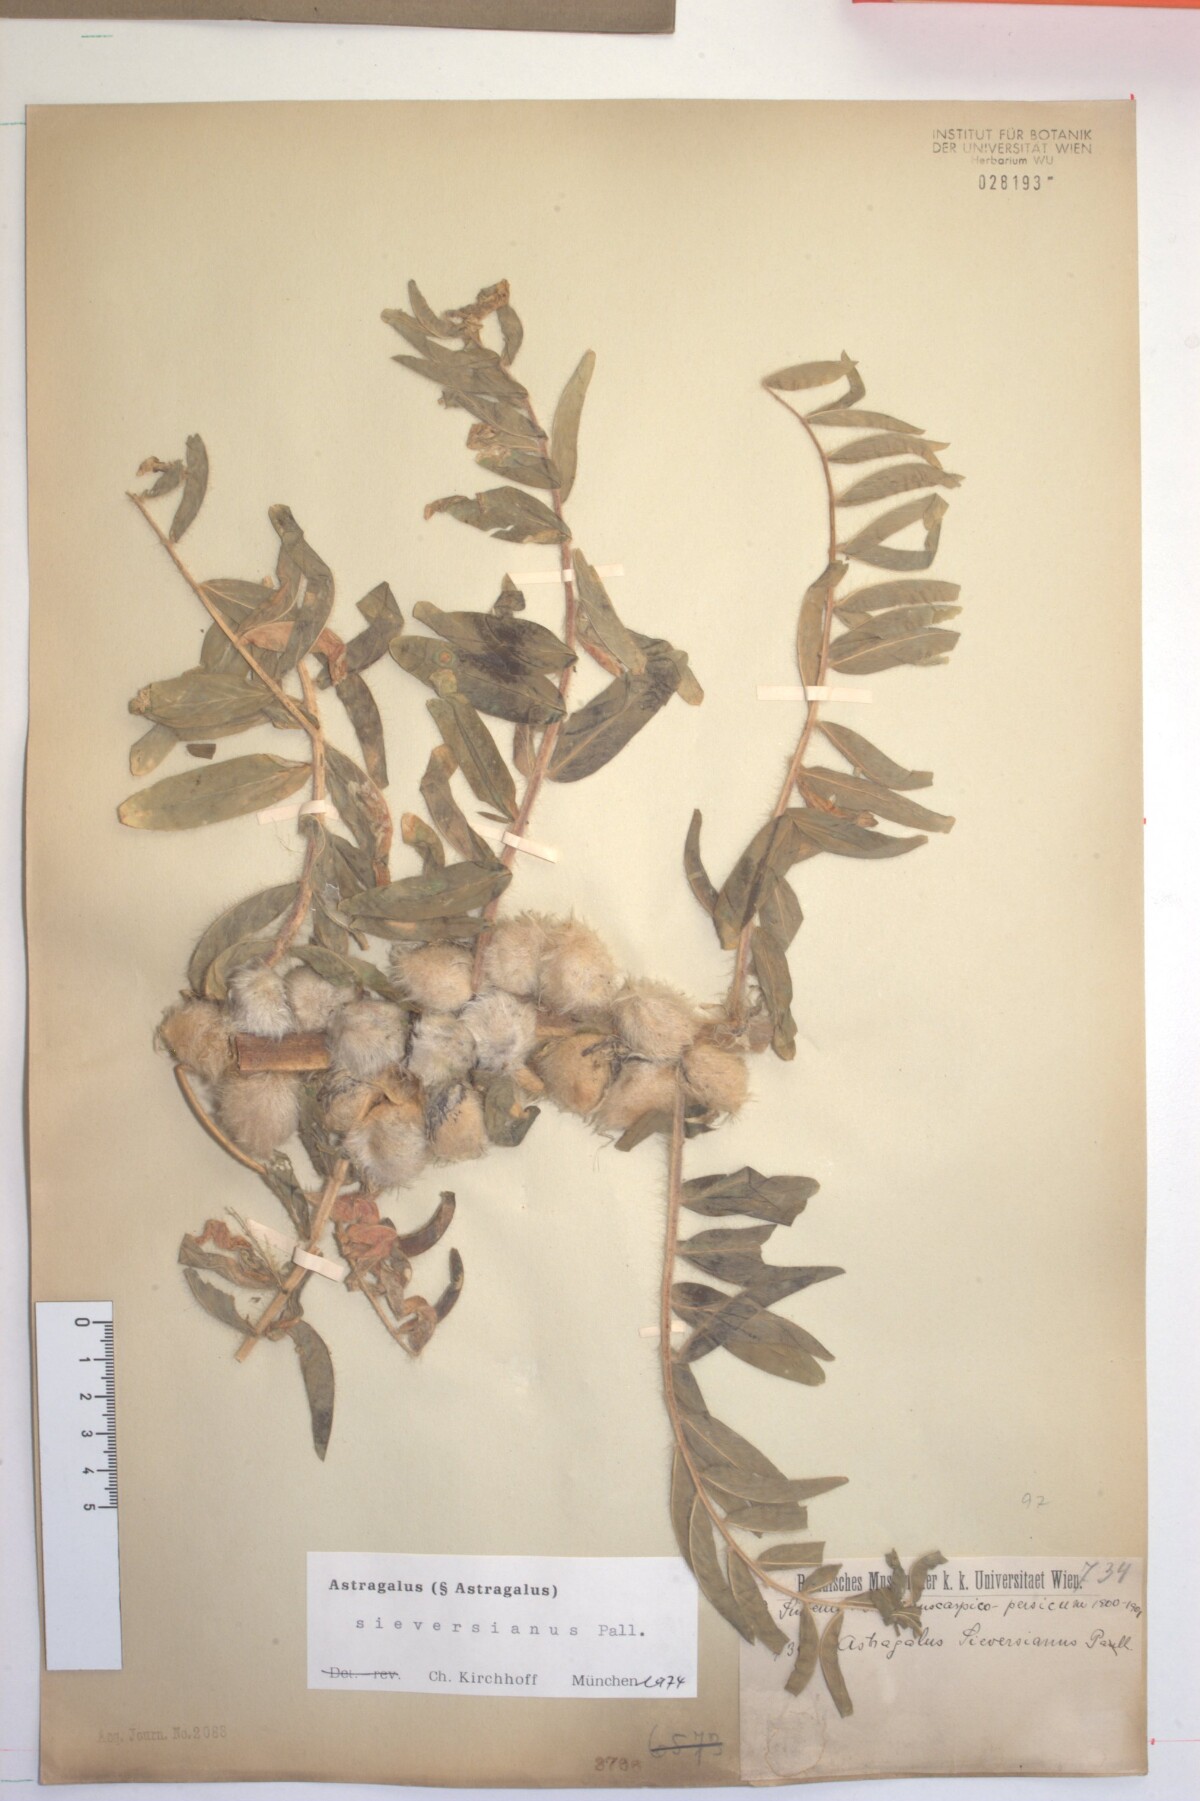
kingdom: Plantae
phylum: Tracheophyta
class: Magnoliopsida
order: Fabales
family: Fabaceae
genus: Astragalus
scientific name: Astragalus sieversianus
